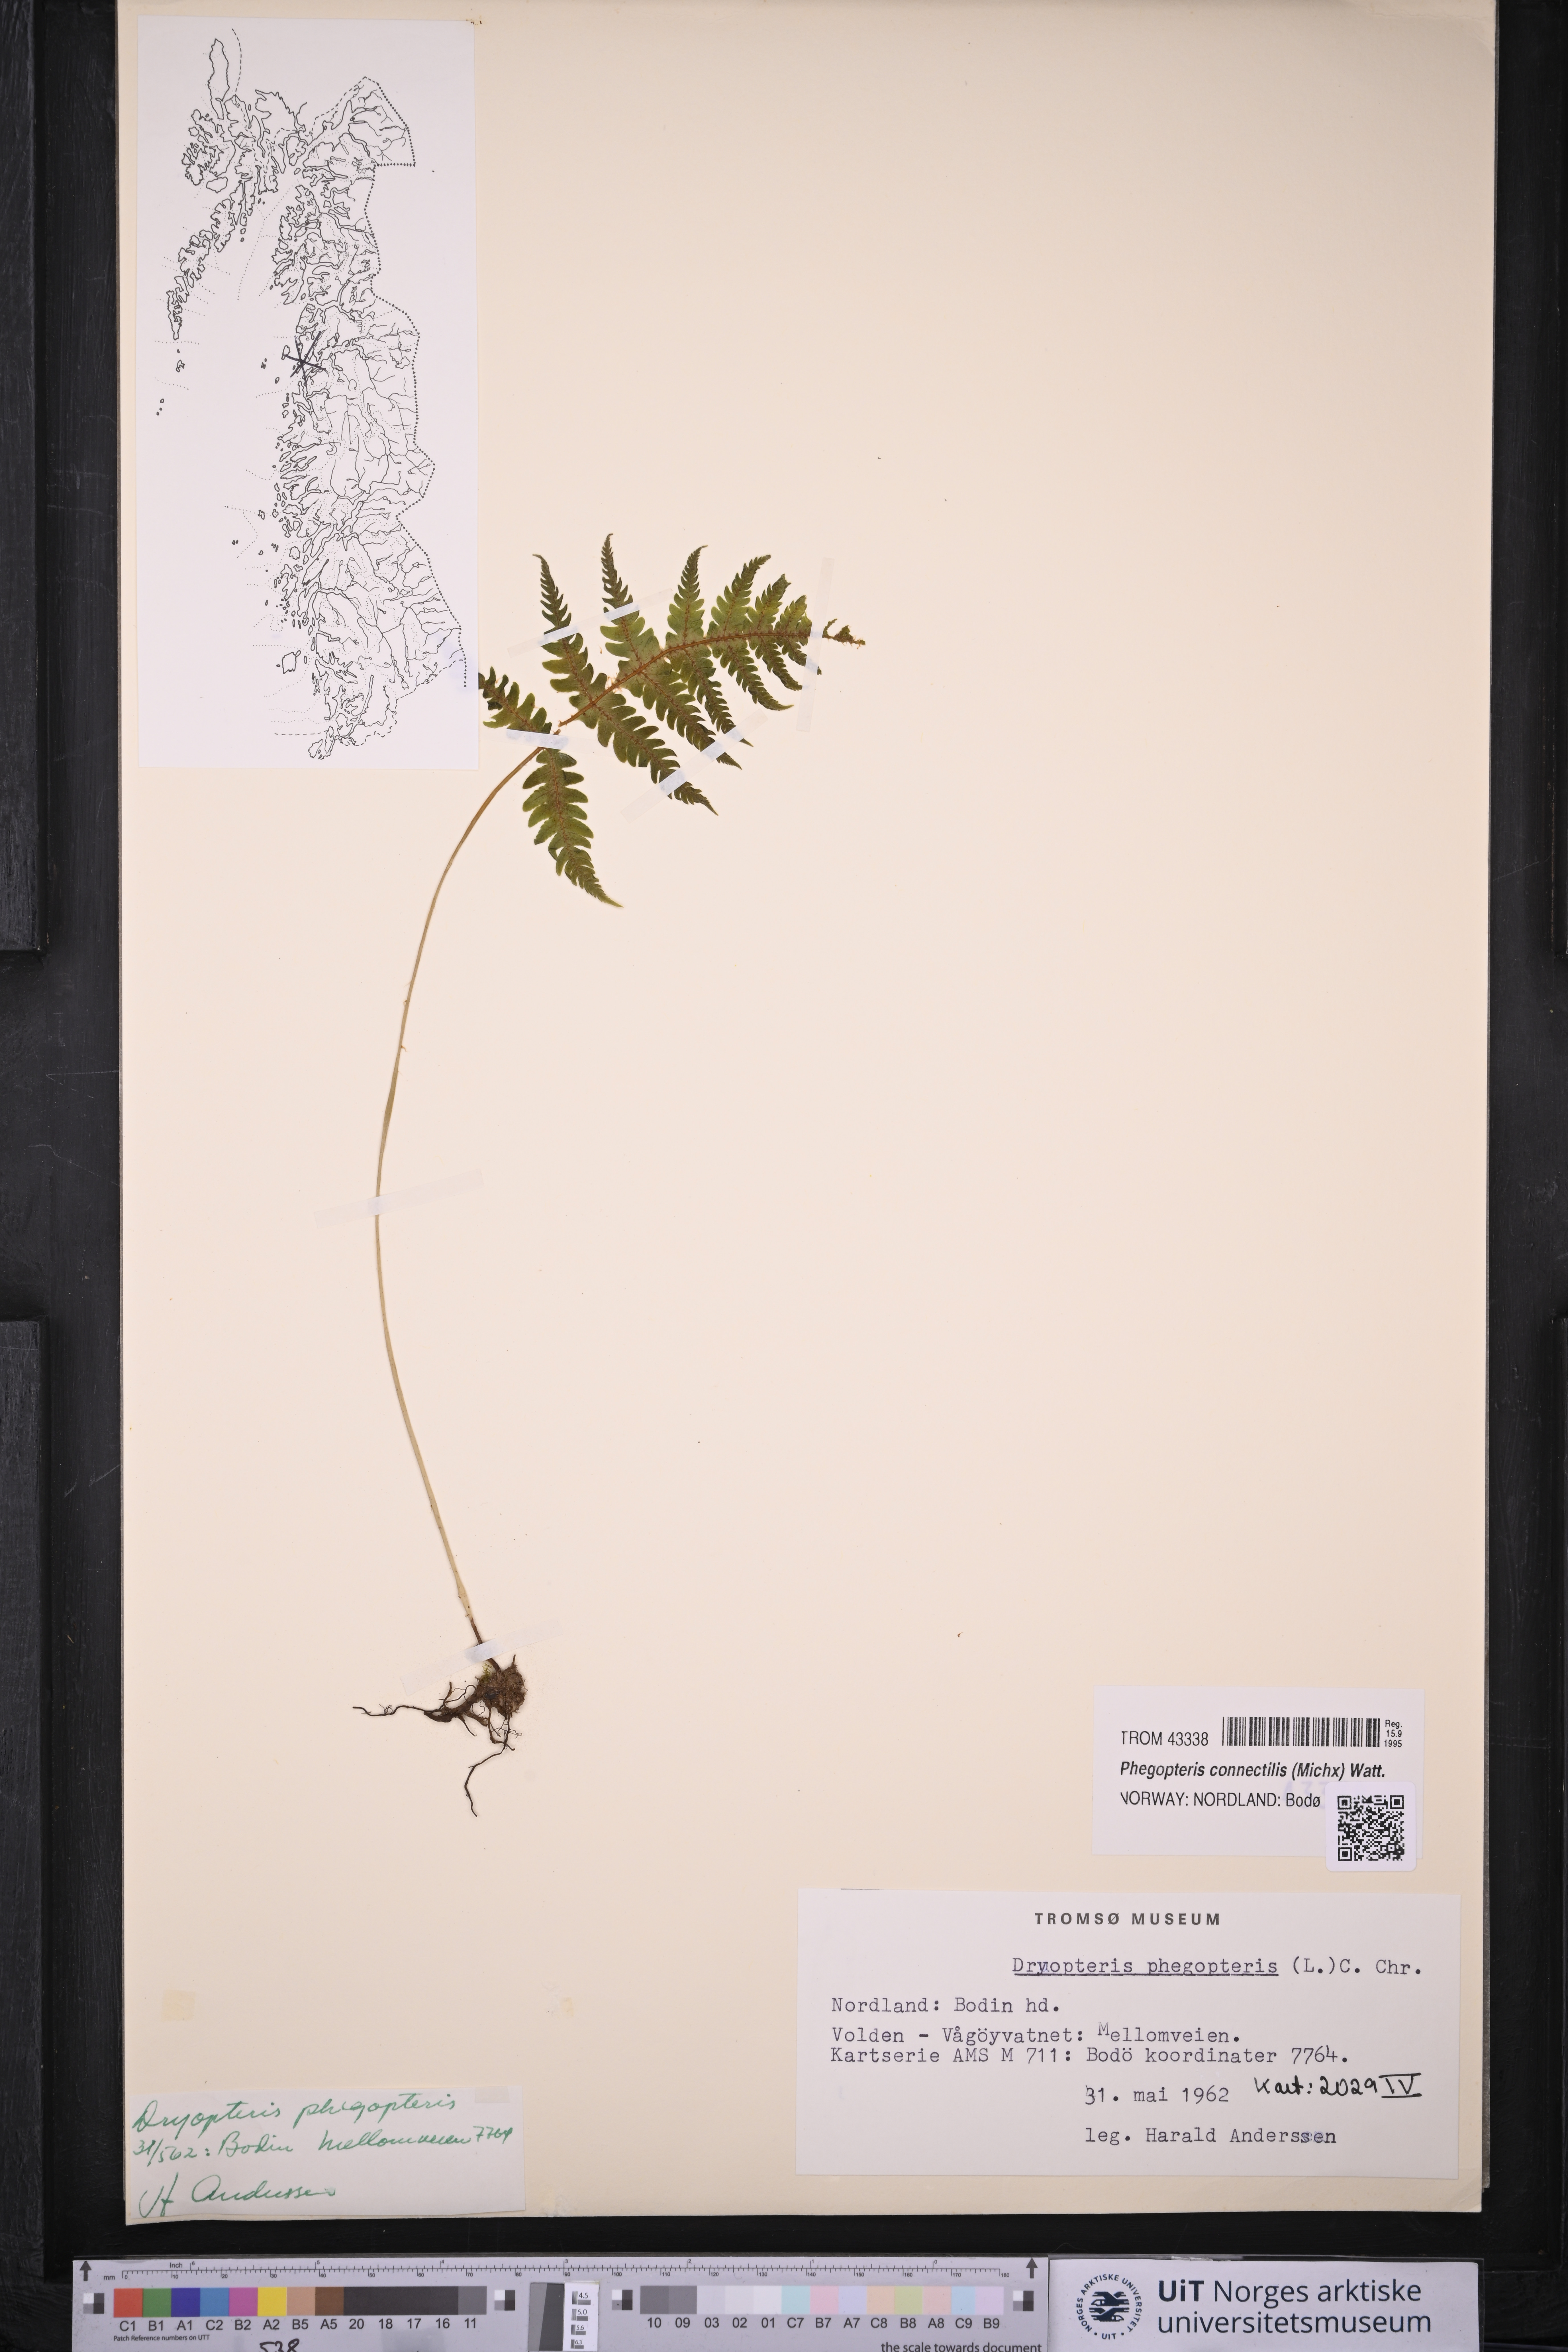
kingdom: Plantae
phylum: Tracheophyta
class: Polypodiopsida
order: Polypodiales
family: Thelypteridaceae
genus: Phegopteris
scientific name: Phegopteris connectilis
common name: Beech fern
